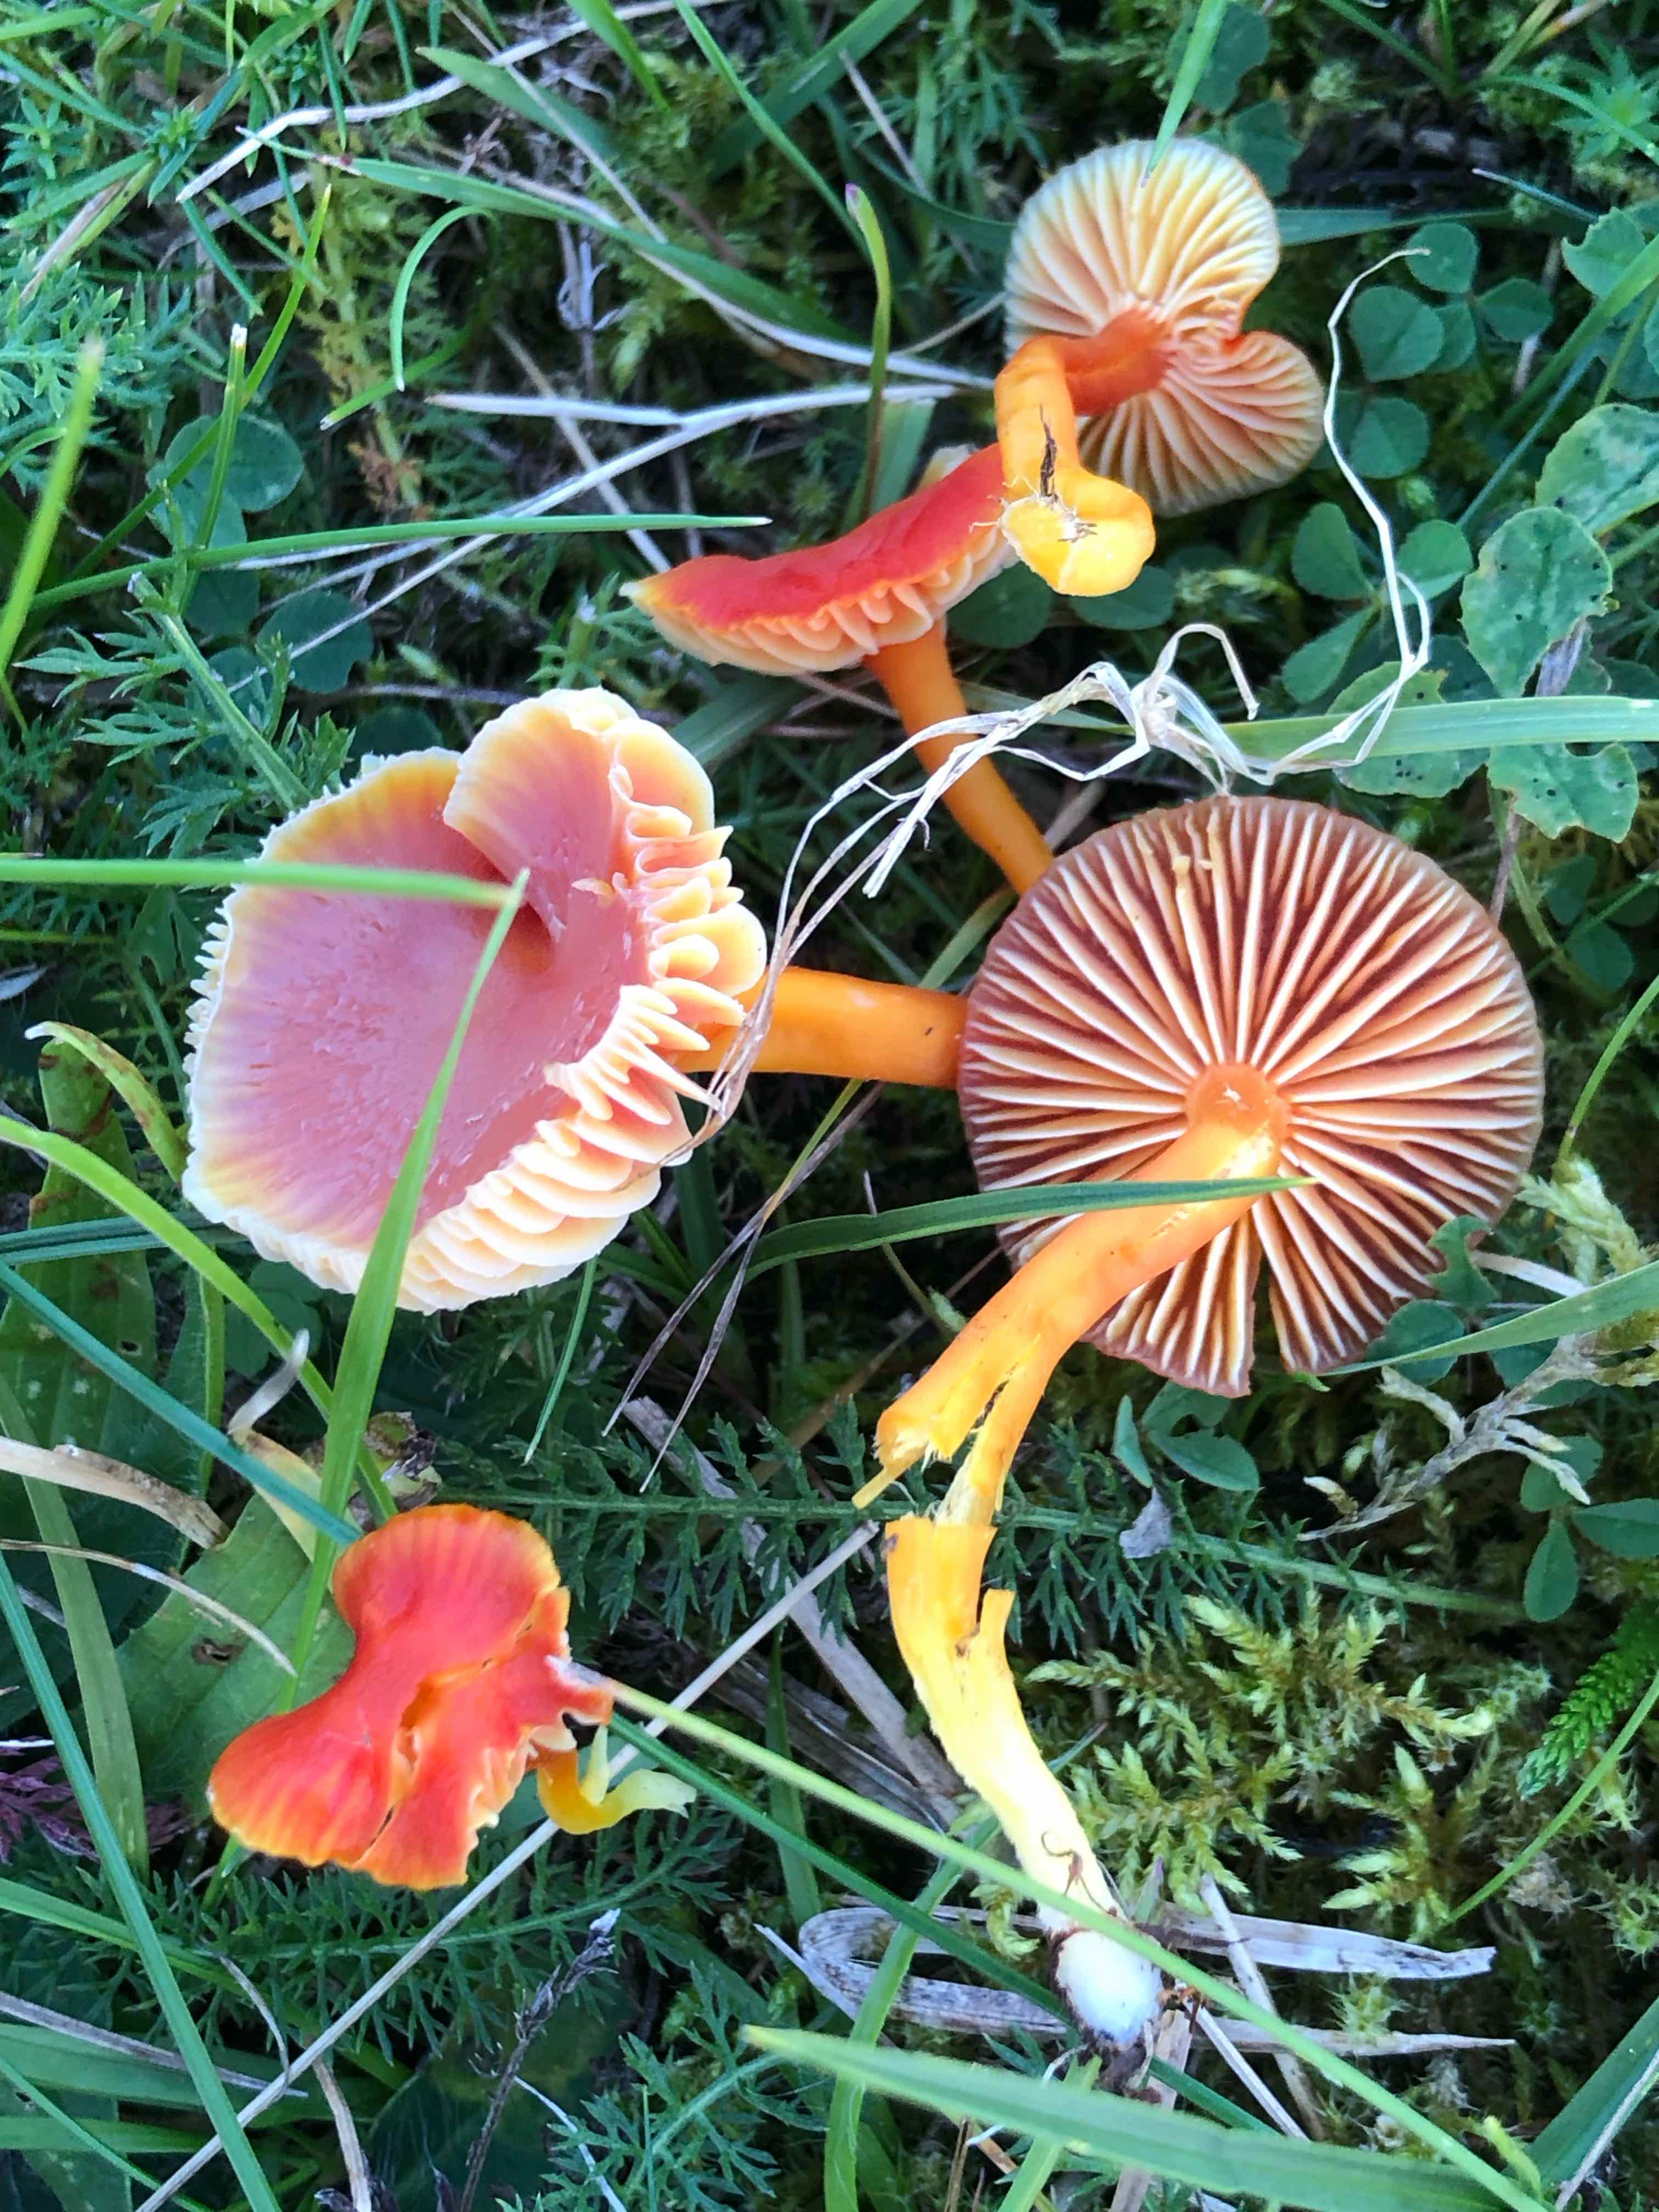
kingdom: Fungi
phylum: Basidiomycota
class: Agaricomycetes
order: Agaricales
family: Hygrophoraceae
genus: Hygrocybe
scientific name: Hygrocybe coccinea
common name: cinnober-vokshat
